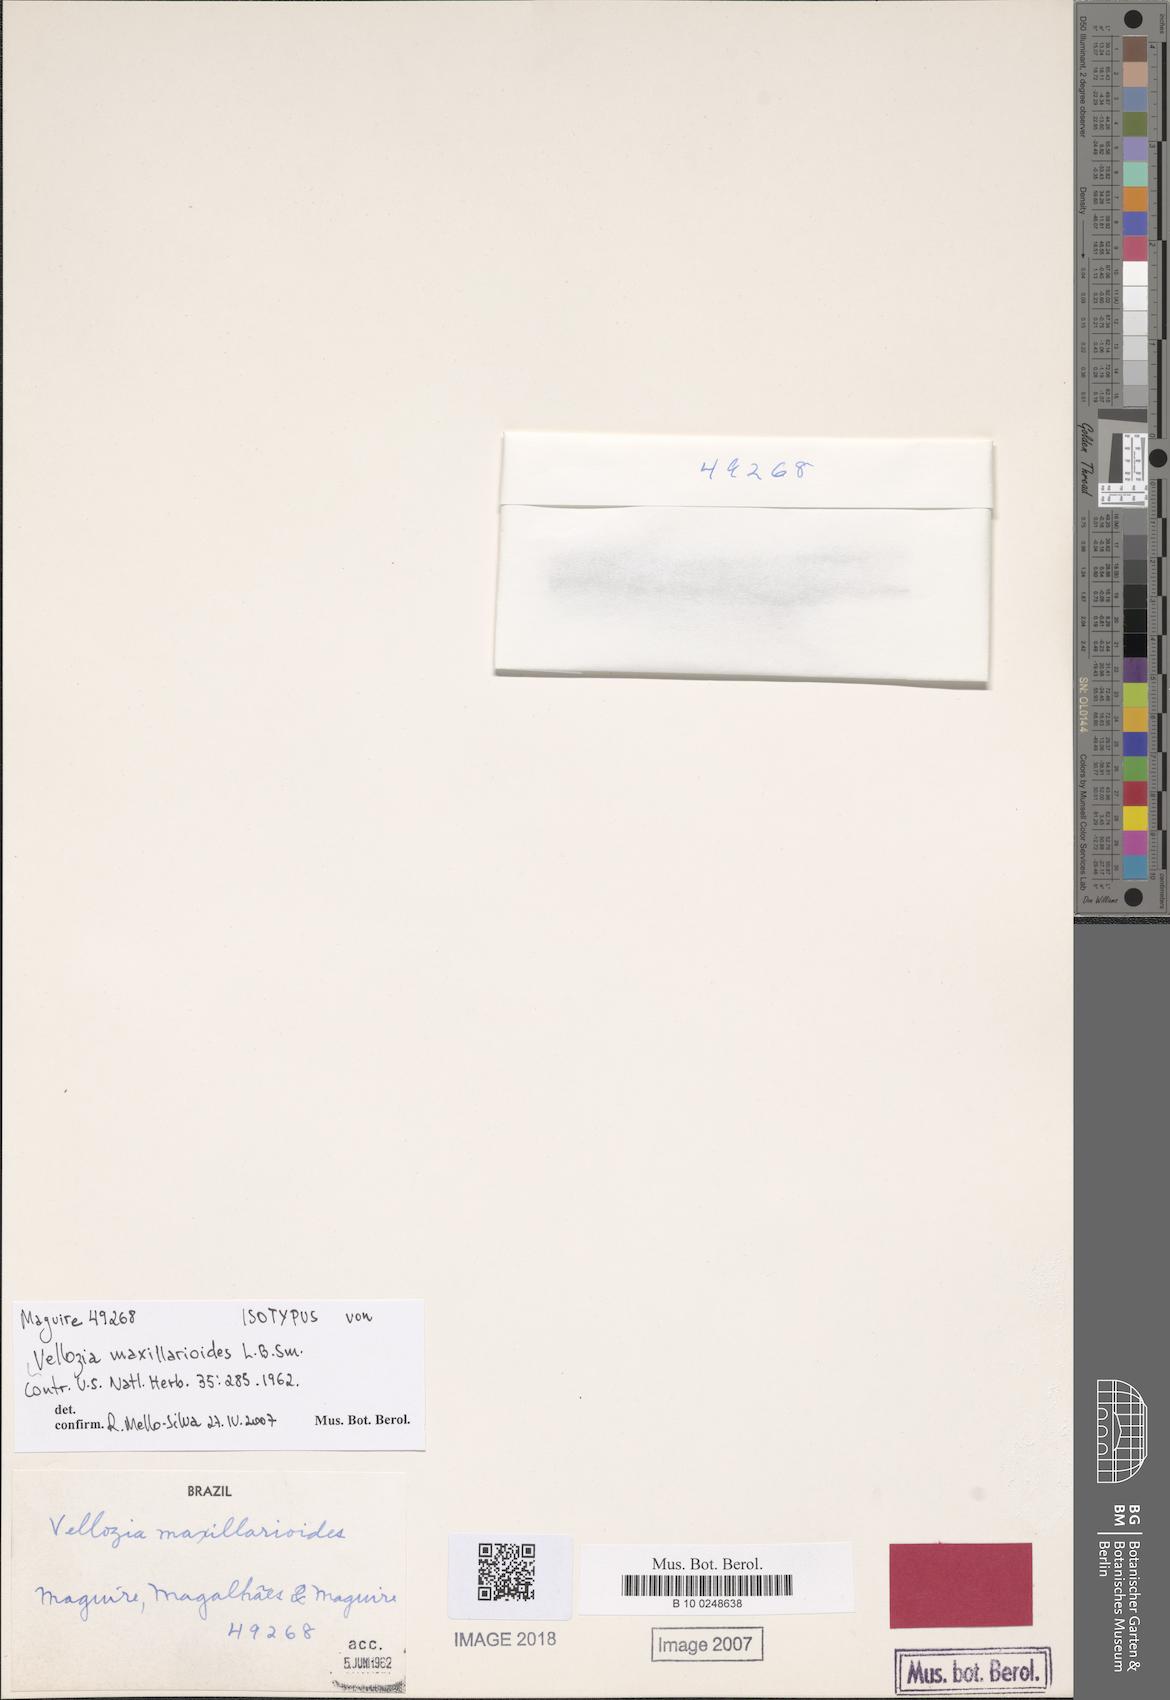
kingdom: Plantae
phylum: Tracheophyta
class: Liliopsida
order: Pandanales
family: Velloziaceae
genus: Vellozia
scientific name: Vellozia maxillarioides
